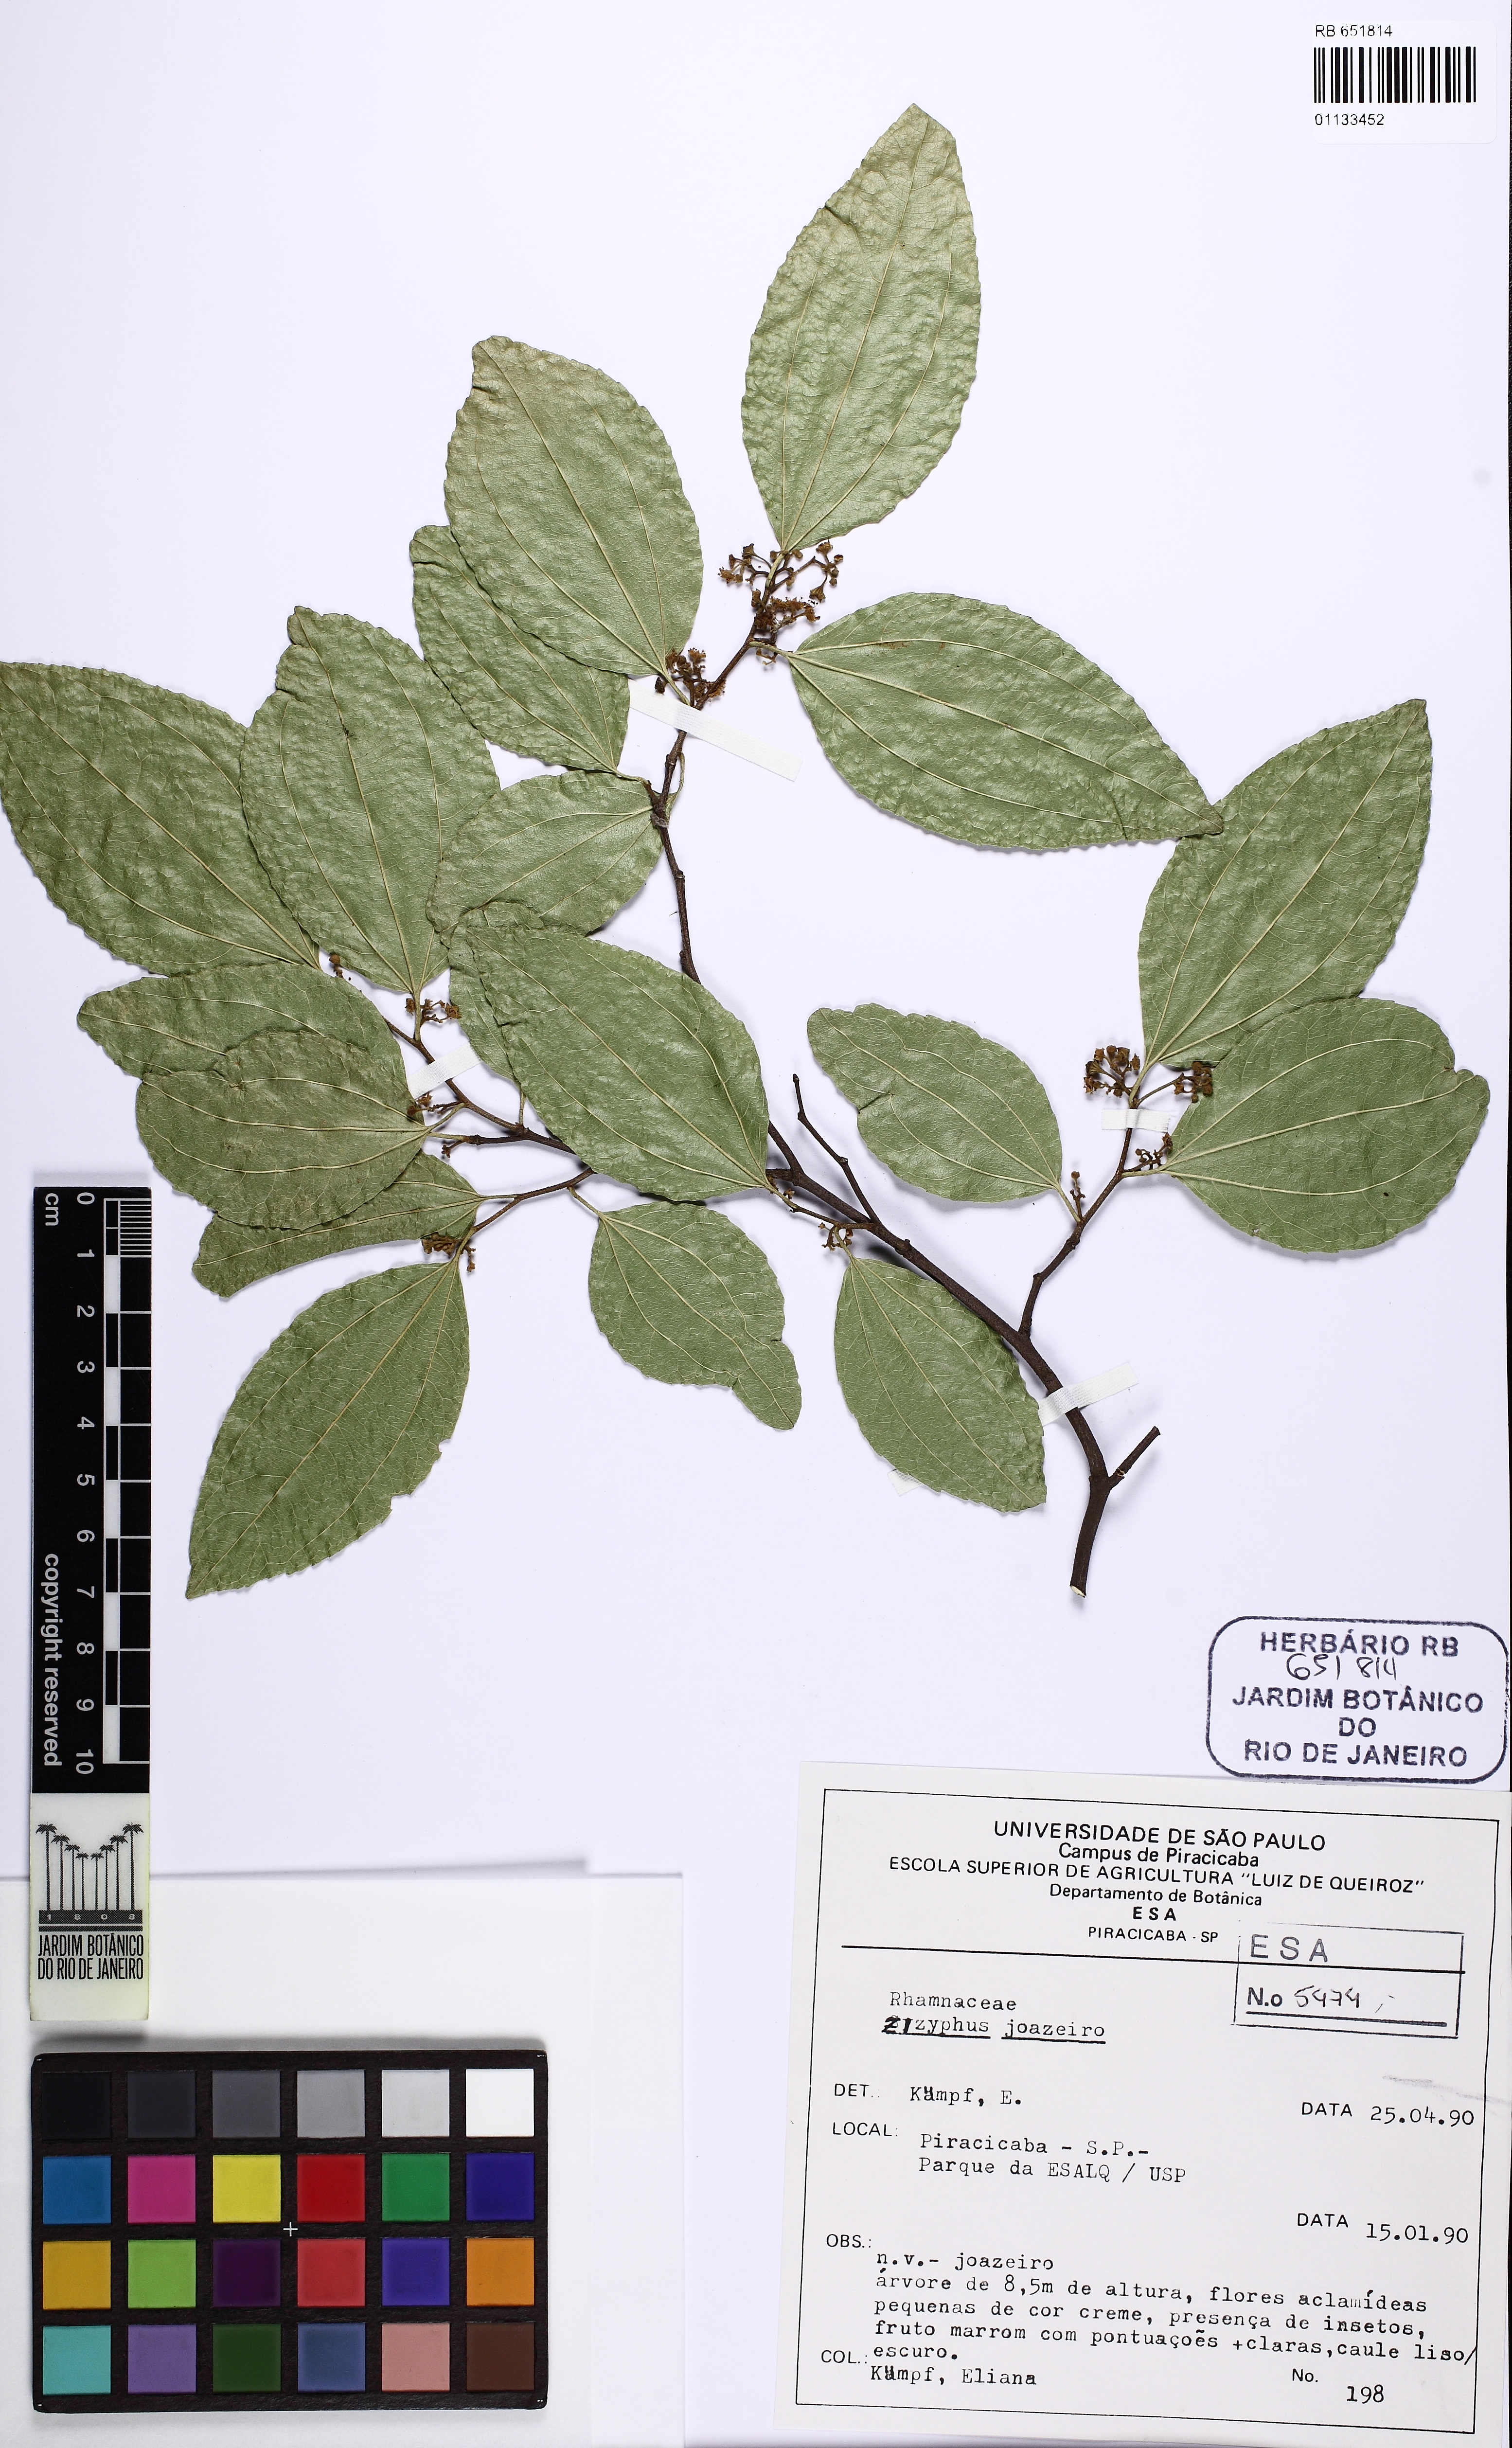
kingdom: Plantae
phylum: Tracheophyta
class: Magnoliopsida
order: Rosales
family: Rhamnaceae
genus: Sarcomphalus
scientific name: Sarcomphalus joazeiro
